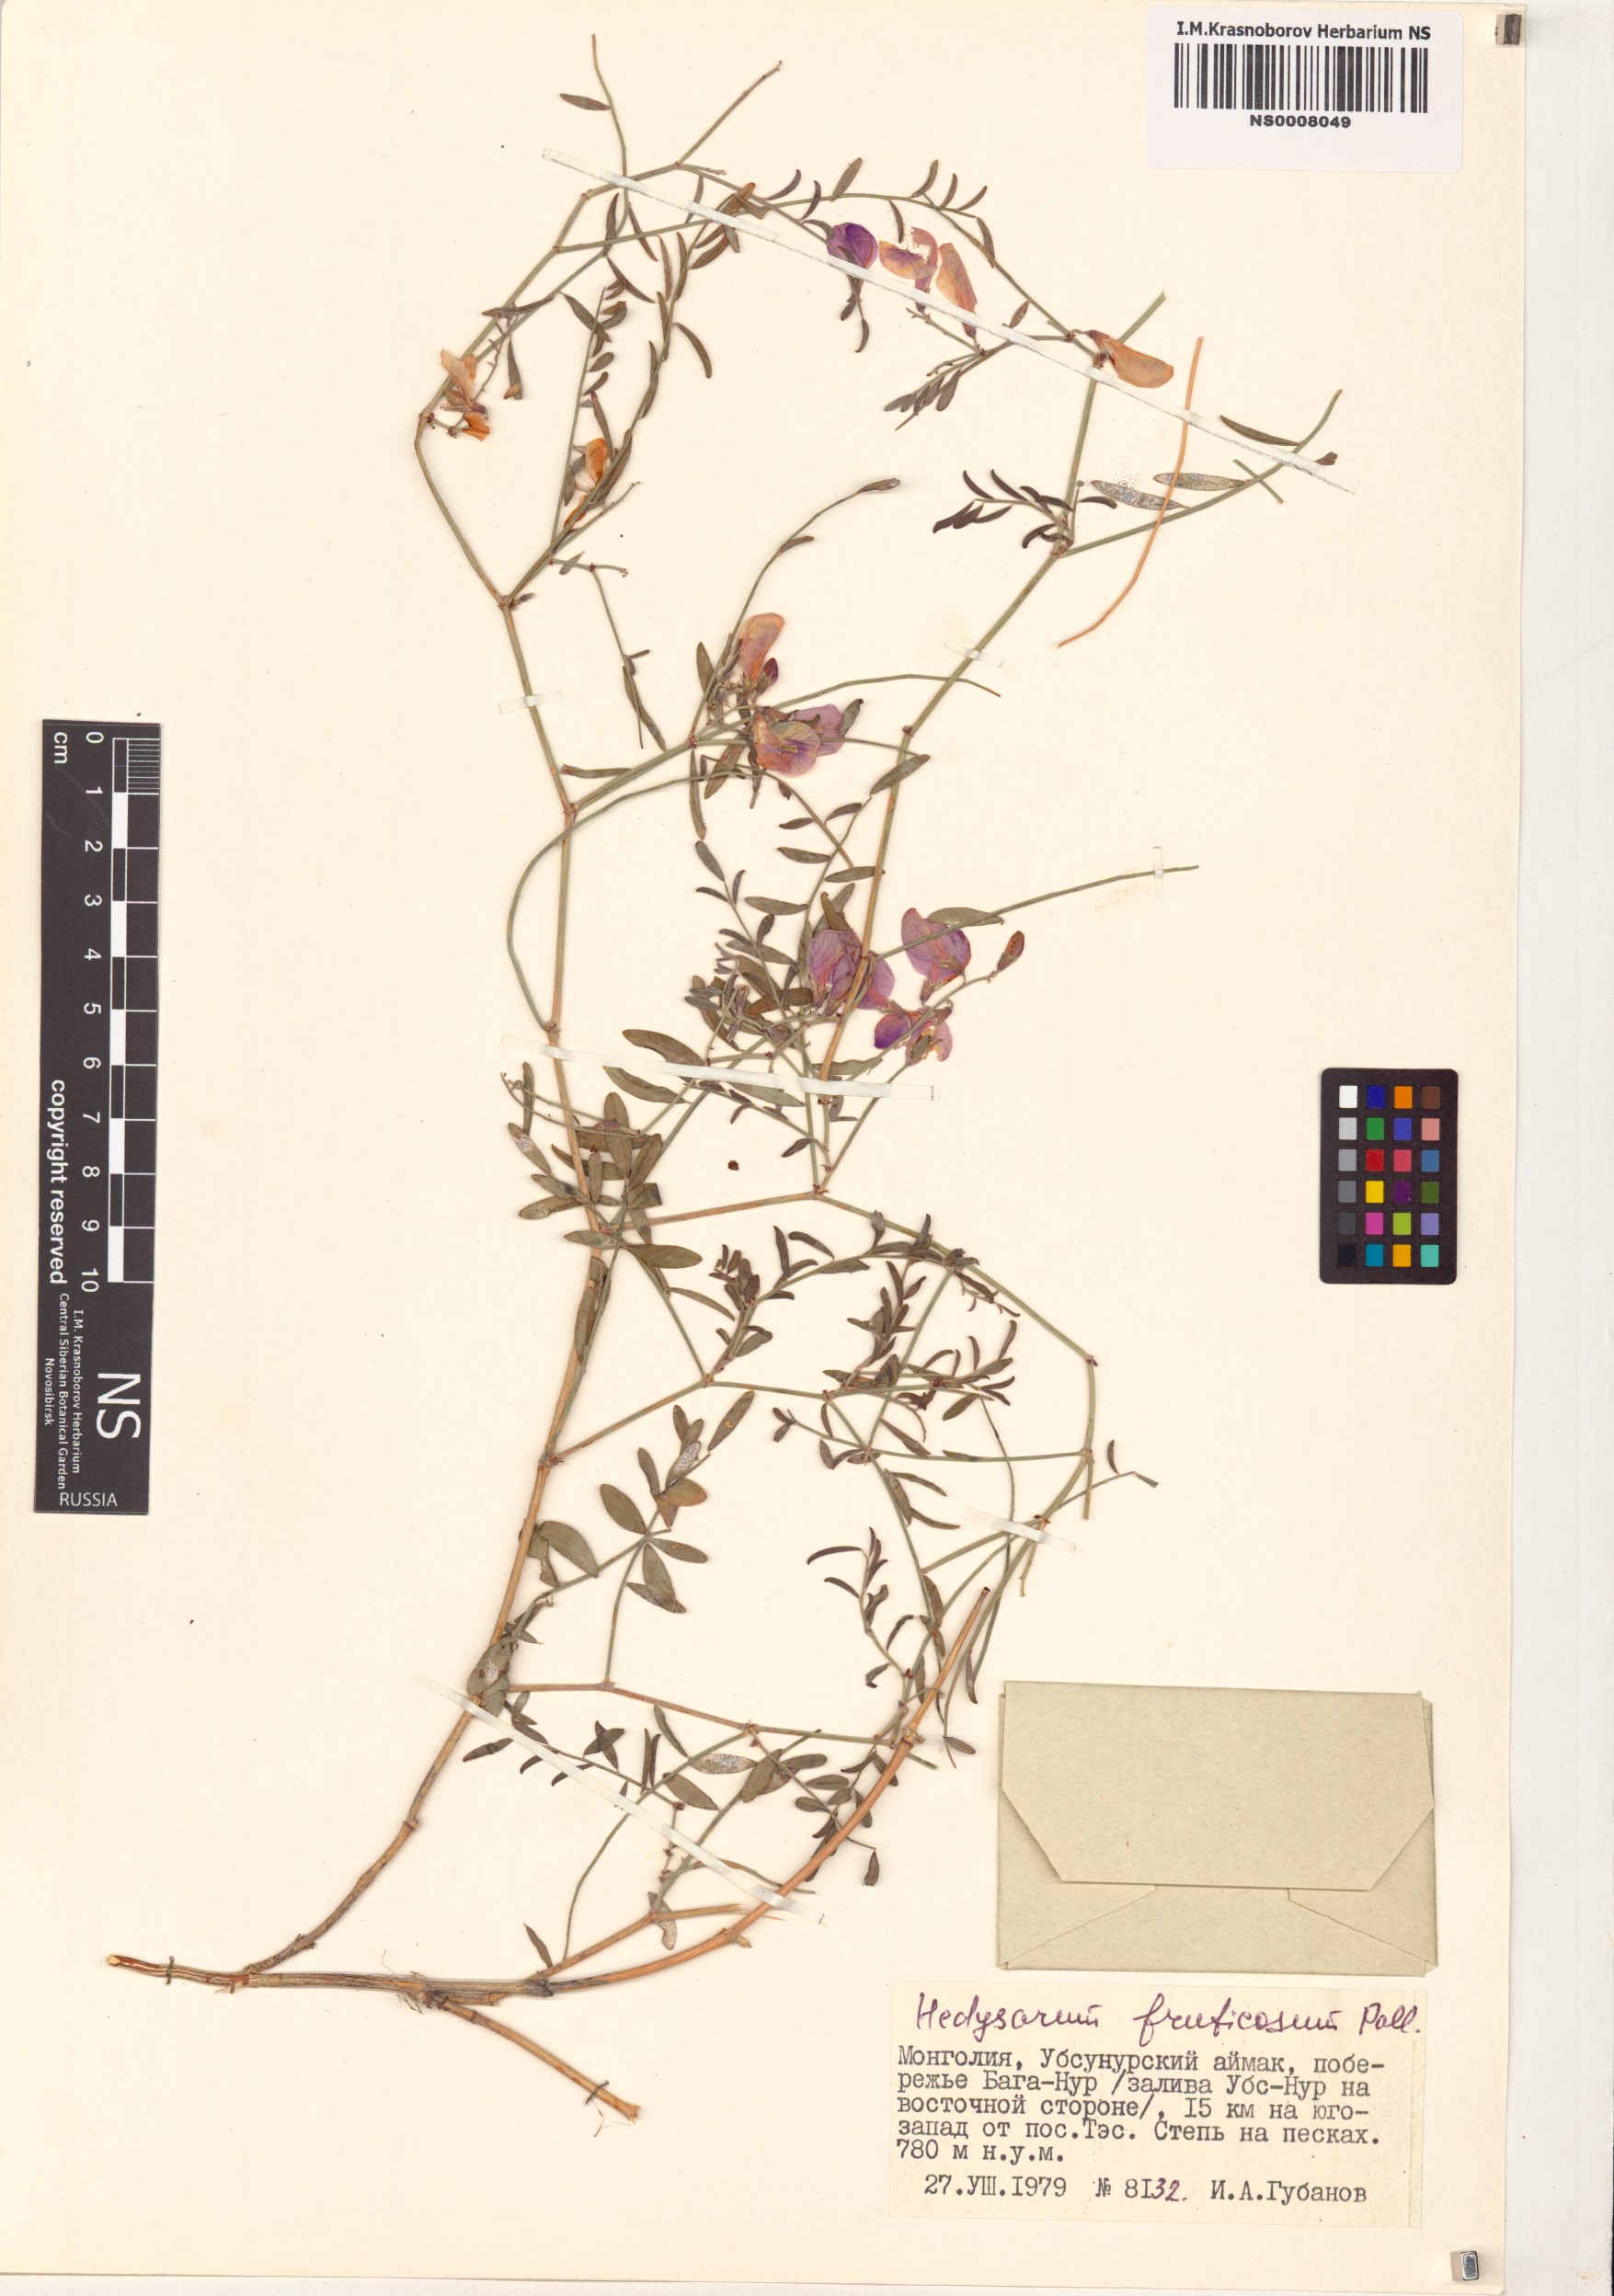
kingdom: Plantae
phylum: Tracheophyta
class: Magnoliopsida
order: Fabales
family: Fabaceae
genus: Corethrodendron
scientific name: Corethrodendron fruticosum
